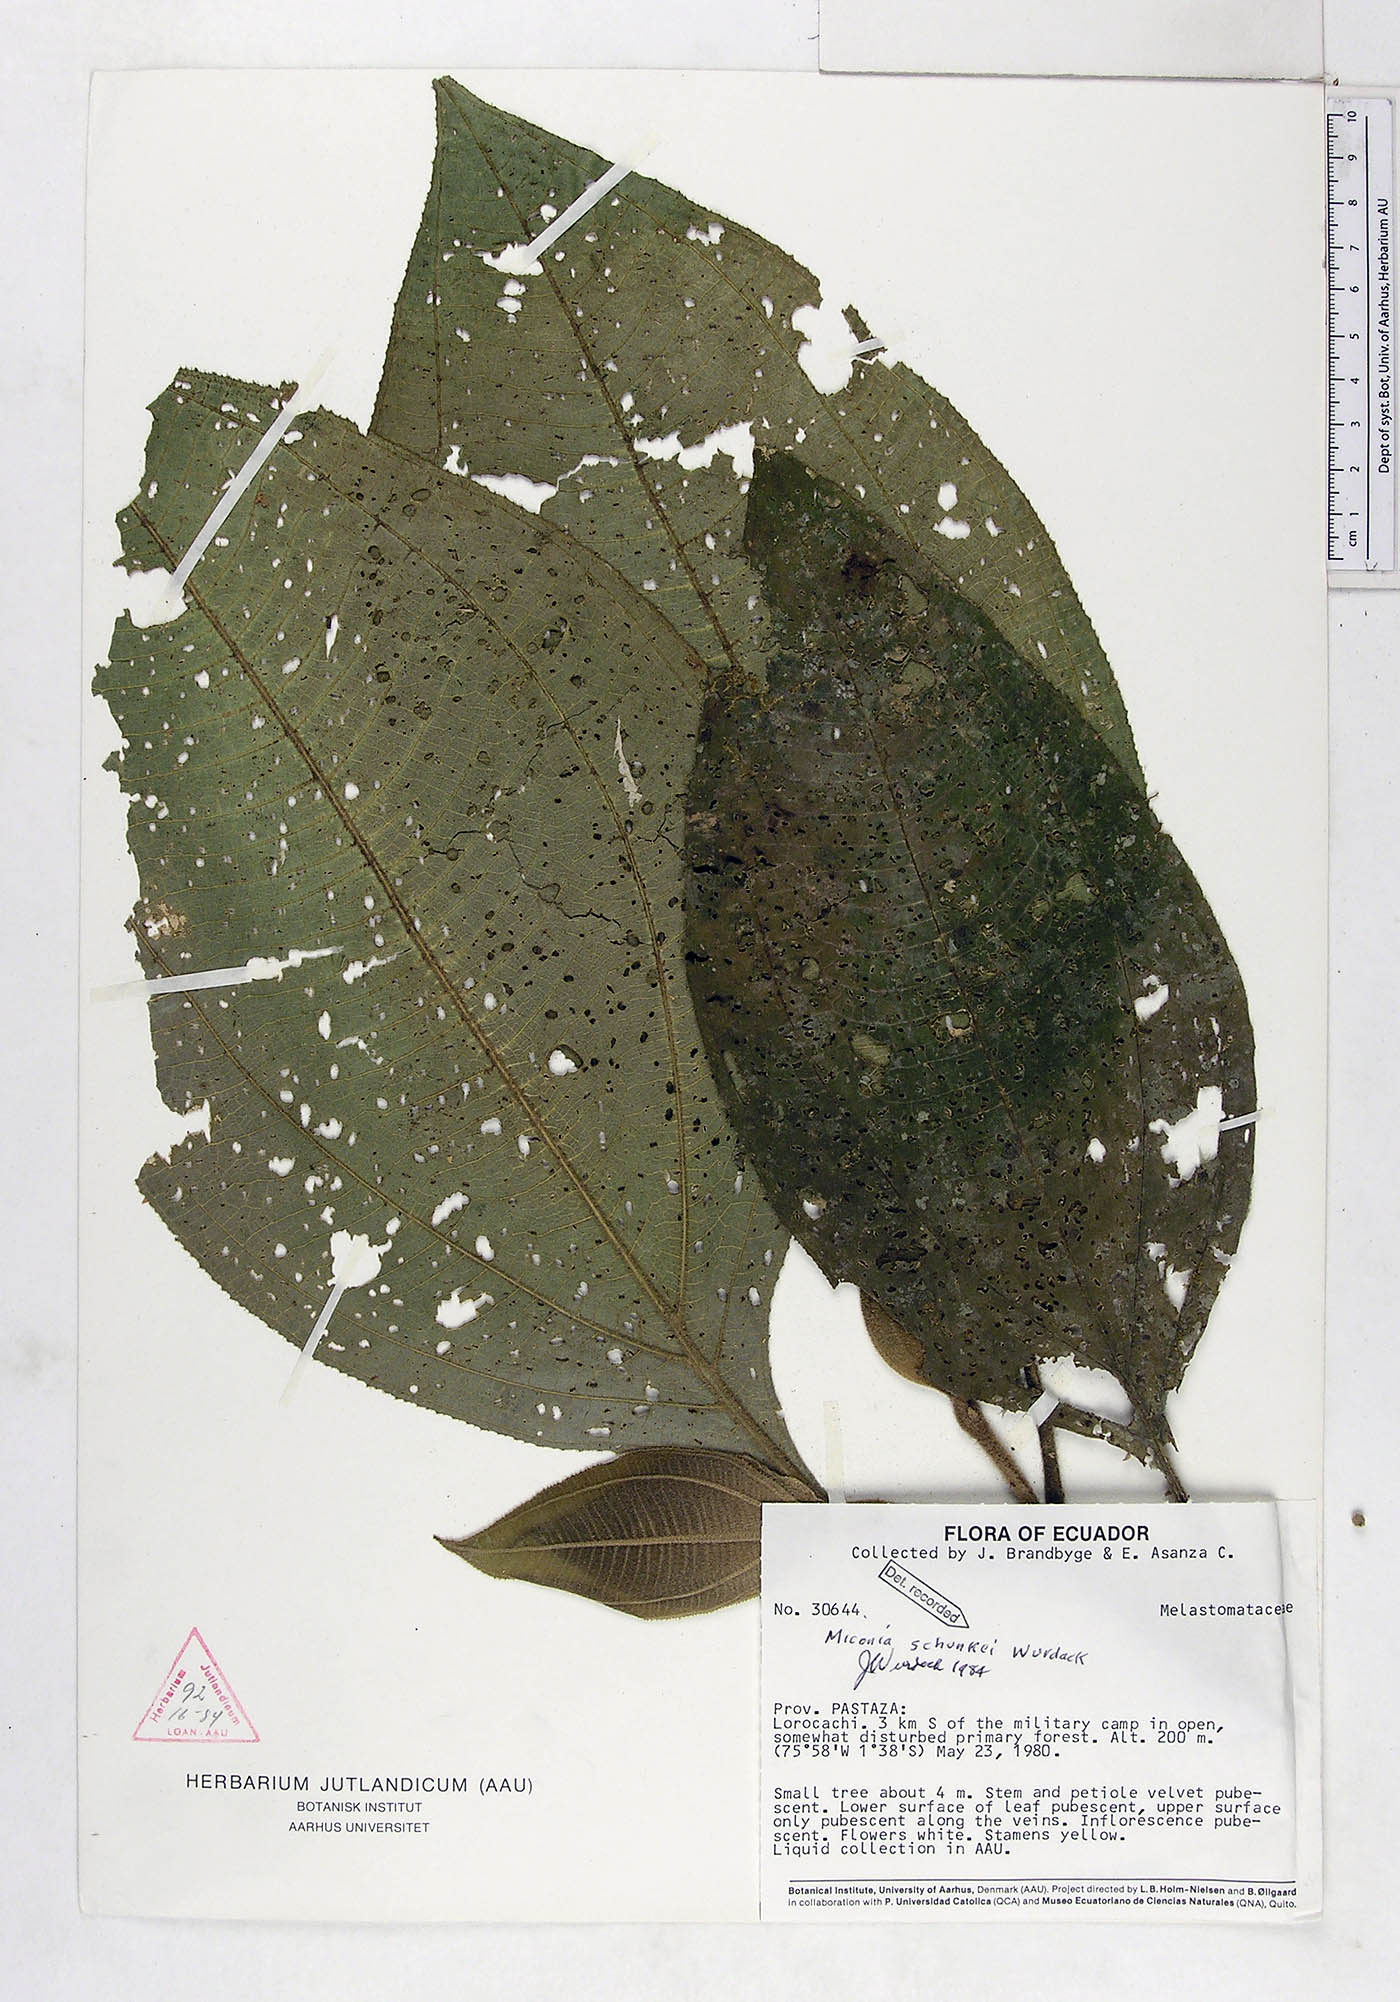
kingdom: Plantae
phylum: Tracheophyta
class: Magnoliopsida
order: Myrtales
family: Melastomataceae
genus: Miconia
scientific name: Miconia schunkei
